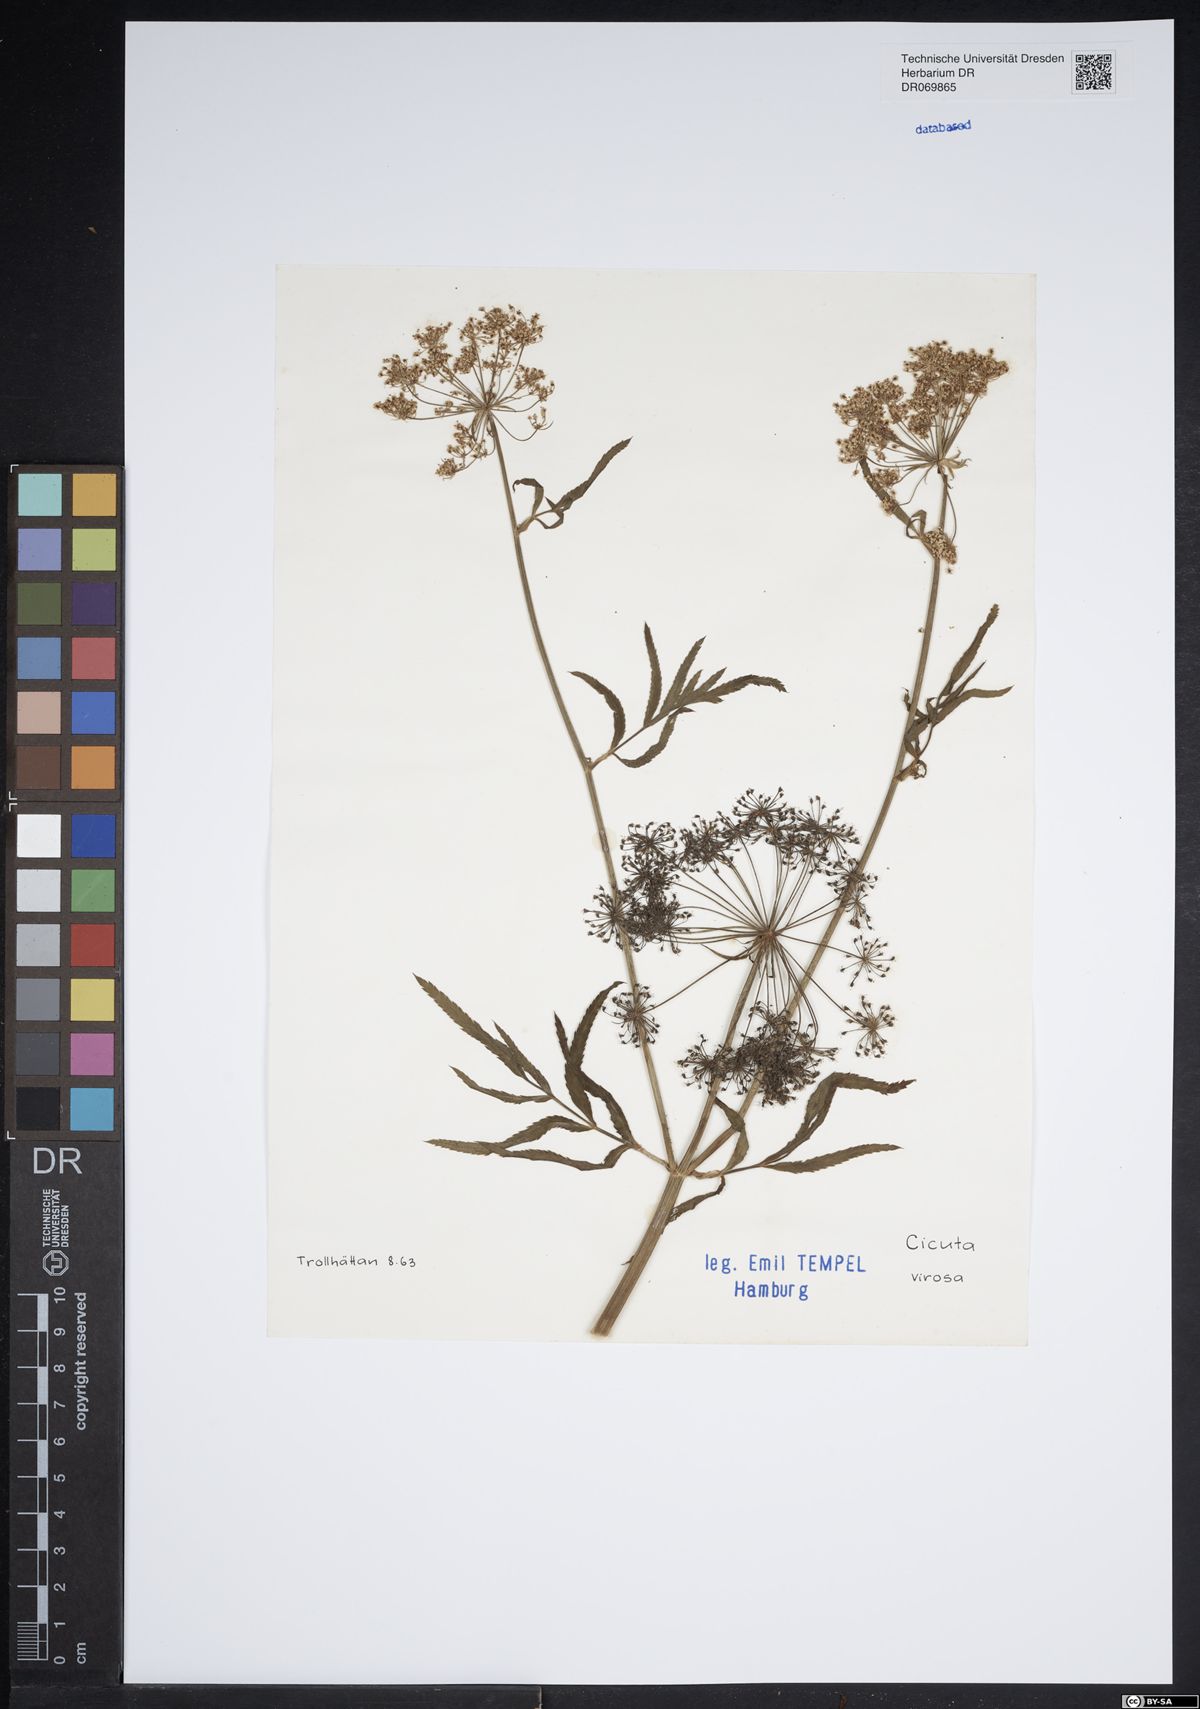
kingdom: Plantae
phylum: Tracheophyta
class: Magnoliopsida
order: Apiales
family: Apiaceae
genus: Cicuta
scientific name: Cicuta virosa
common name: Cowbane
